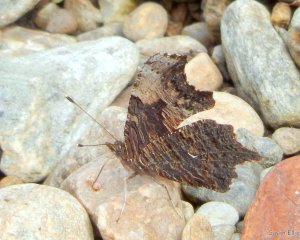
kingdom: Animalia
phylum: Arthropoda
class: Insecta
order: Lepidoptera
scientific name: Lepidoptera
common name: Butterflies
